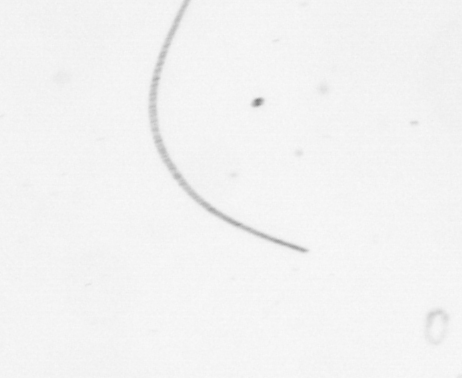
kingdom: Chromista
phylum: Ochrophyta
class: Bacillariophyceae
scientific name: Bacillariophyceae
